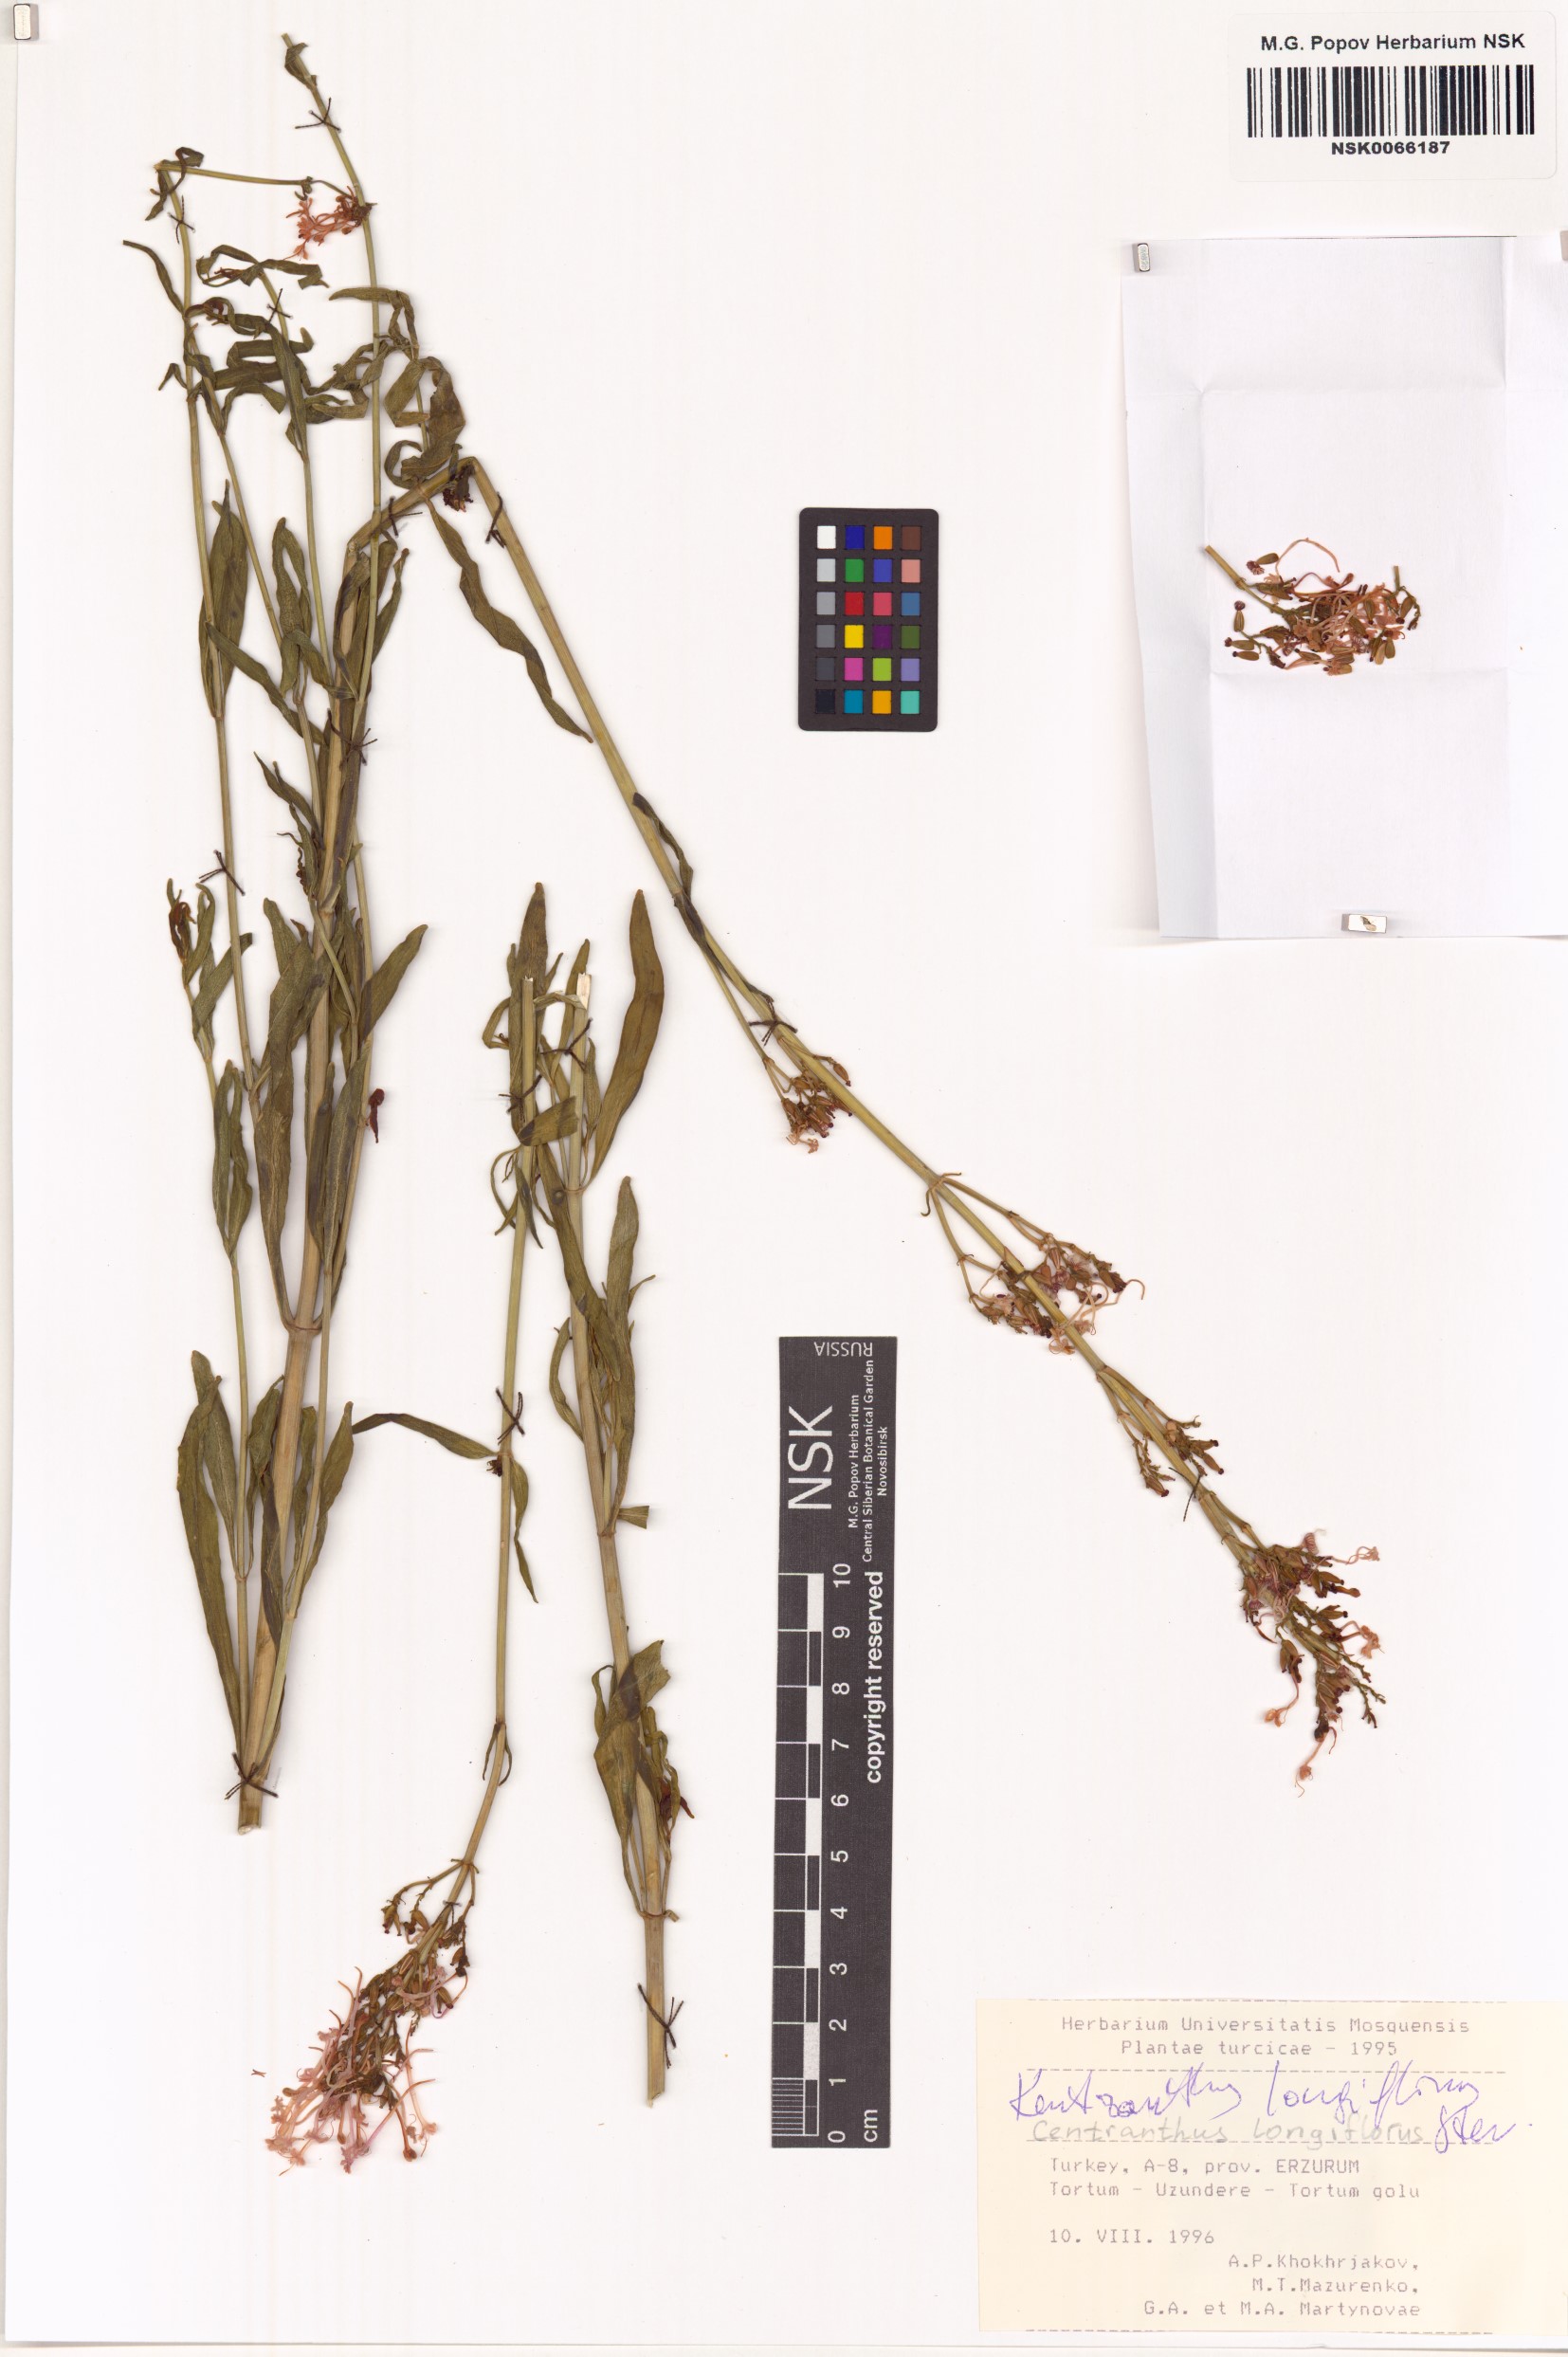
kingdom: Plantae
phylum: Tracheophyta
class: Magnoliopsida
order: Dipsacales
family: Caprifoliaceae
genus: Centranthus
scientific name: Centranthus longiflorus
